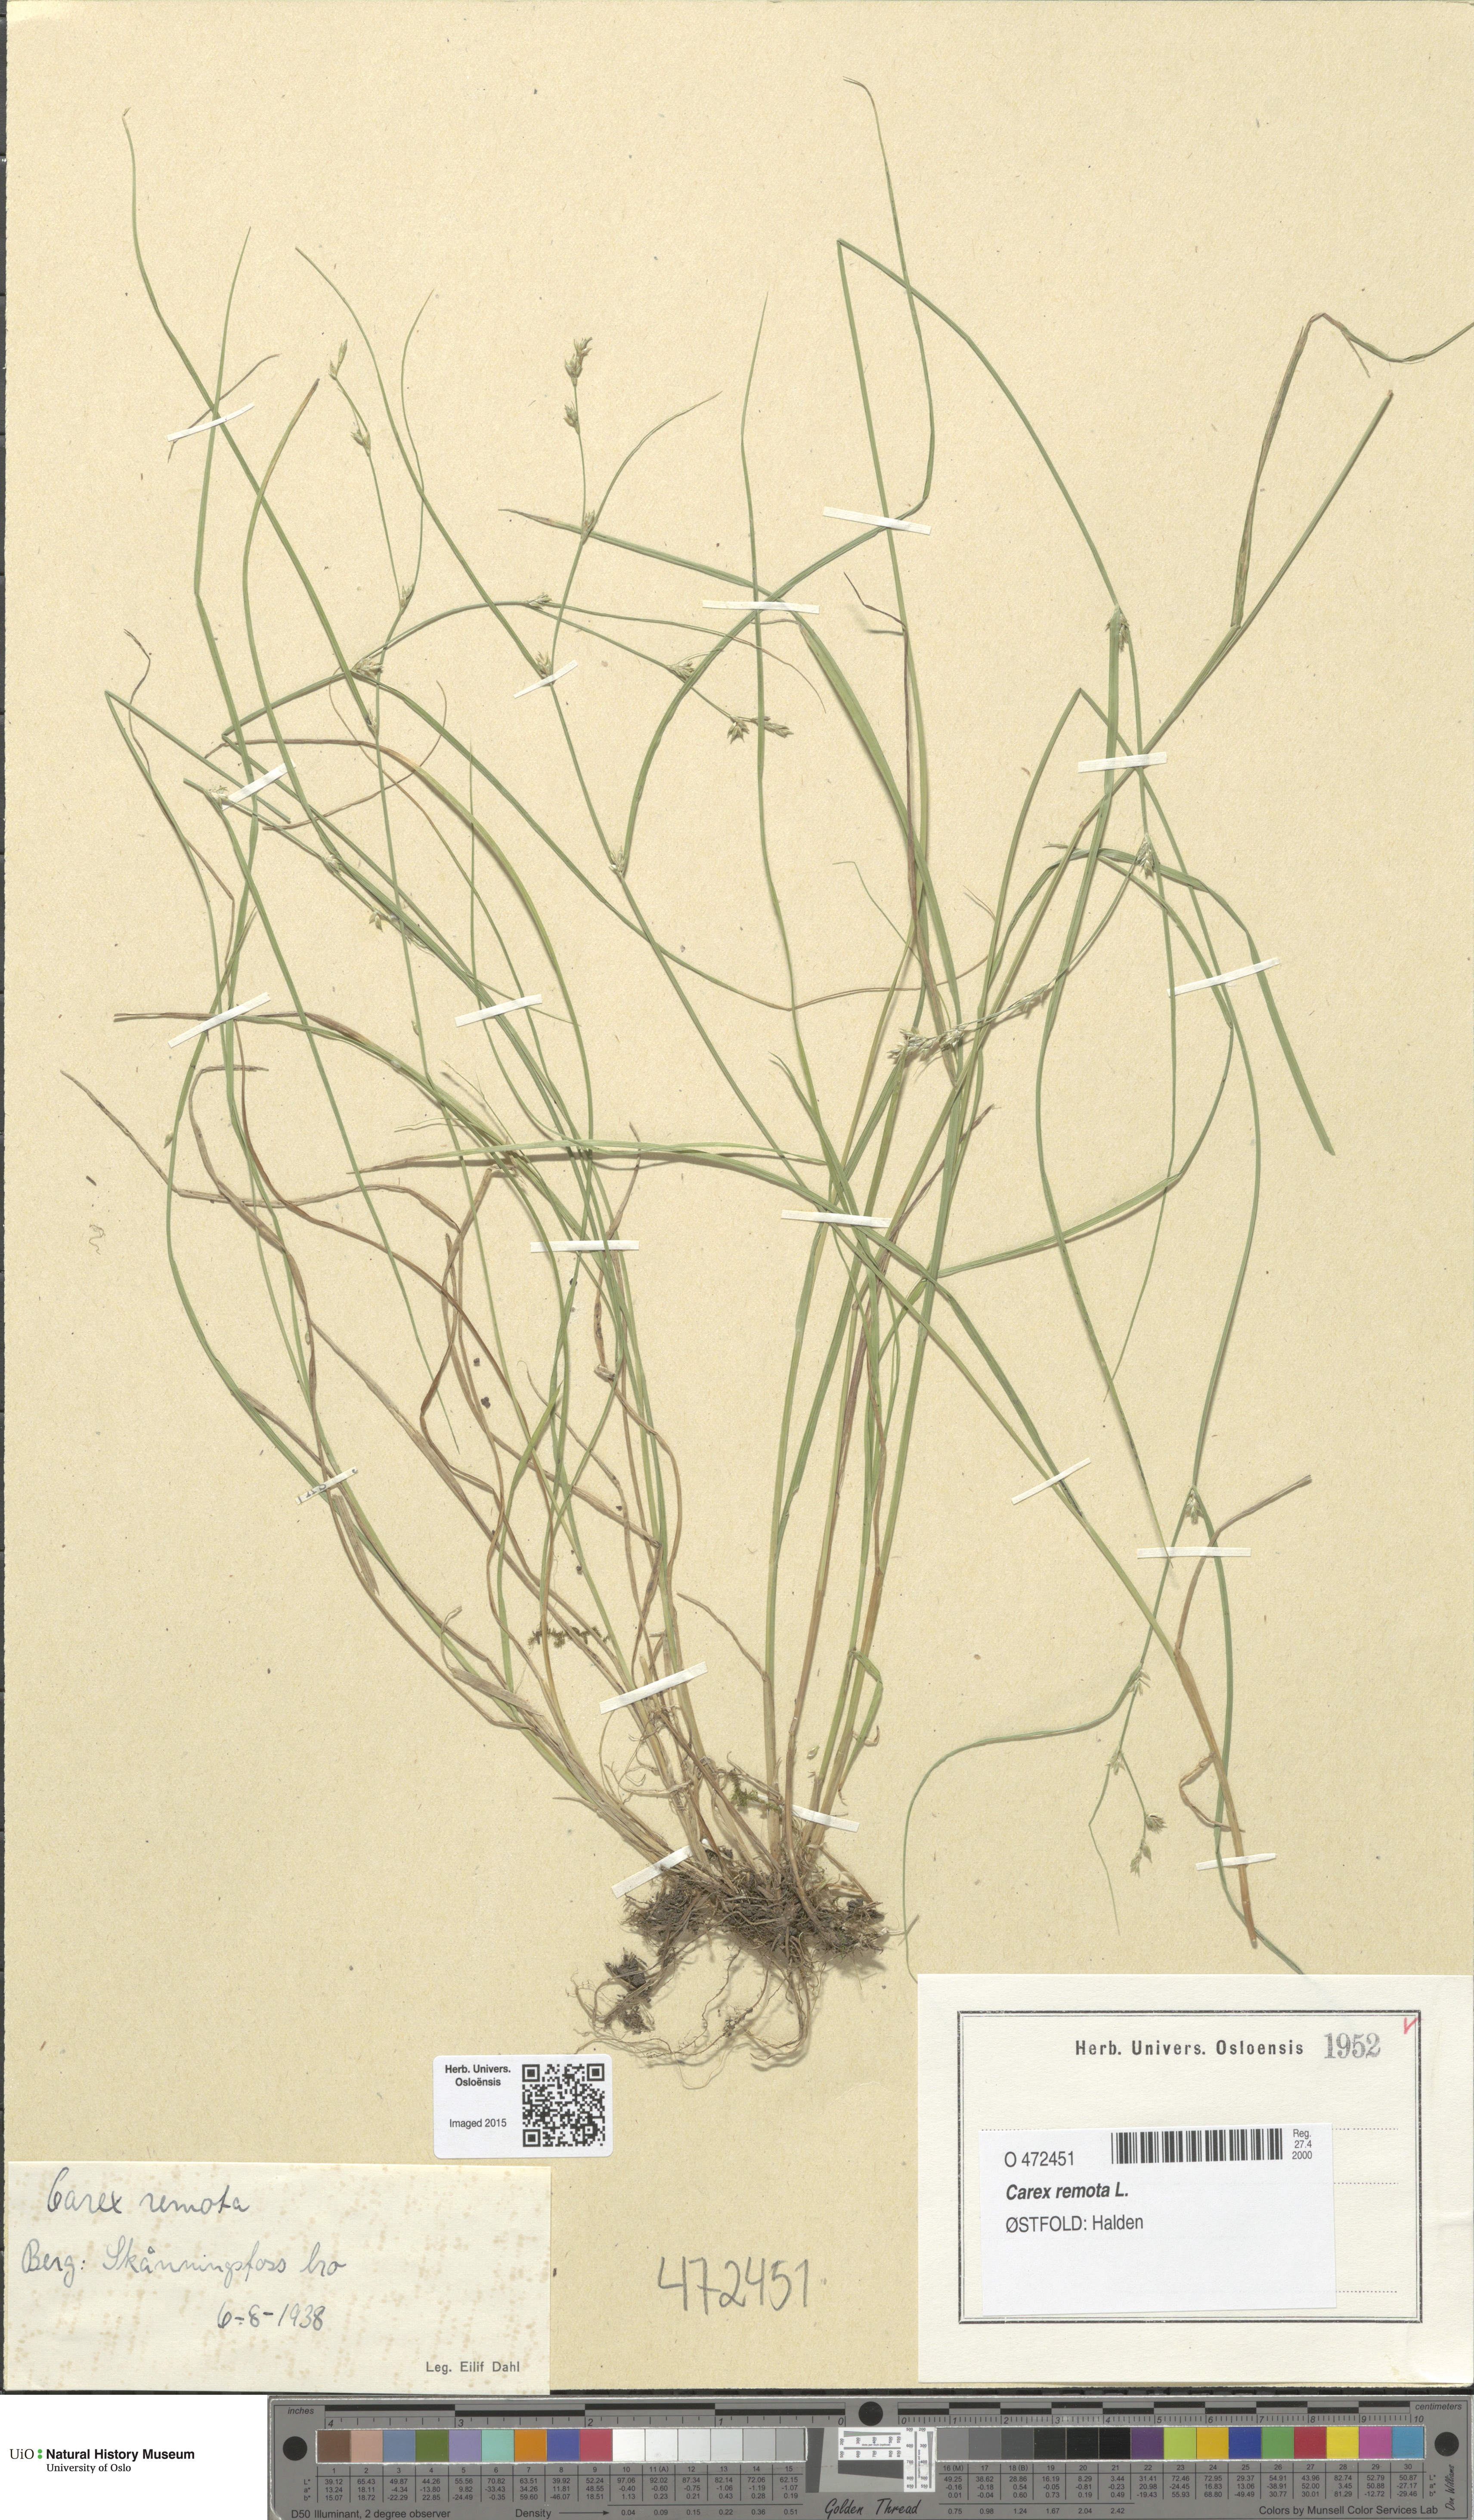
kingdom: Plantae
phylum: Tracheophyta
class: Liliopsida
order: Poales
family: Cyperaceae
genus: Carex
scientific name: Carex remota
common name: Remote sedge
